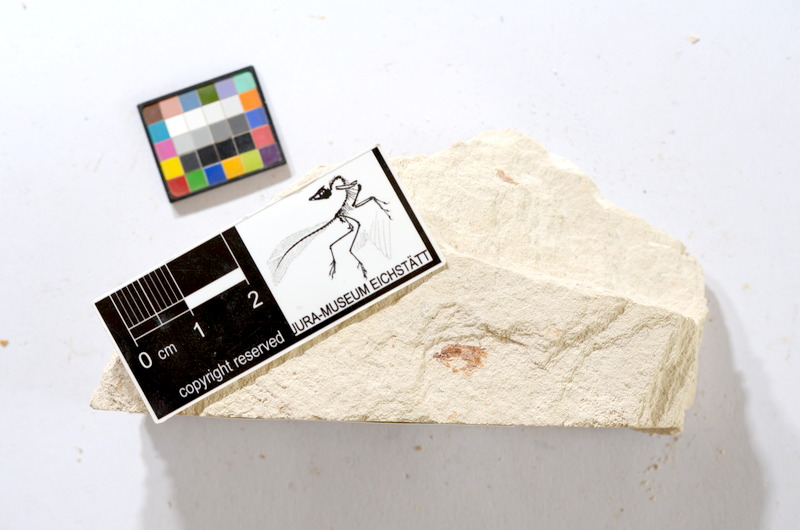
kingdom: Animalia
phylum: Chordata
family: Ascalaboidae
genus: Tharsis
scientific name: Tharsis dubius
